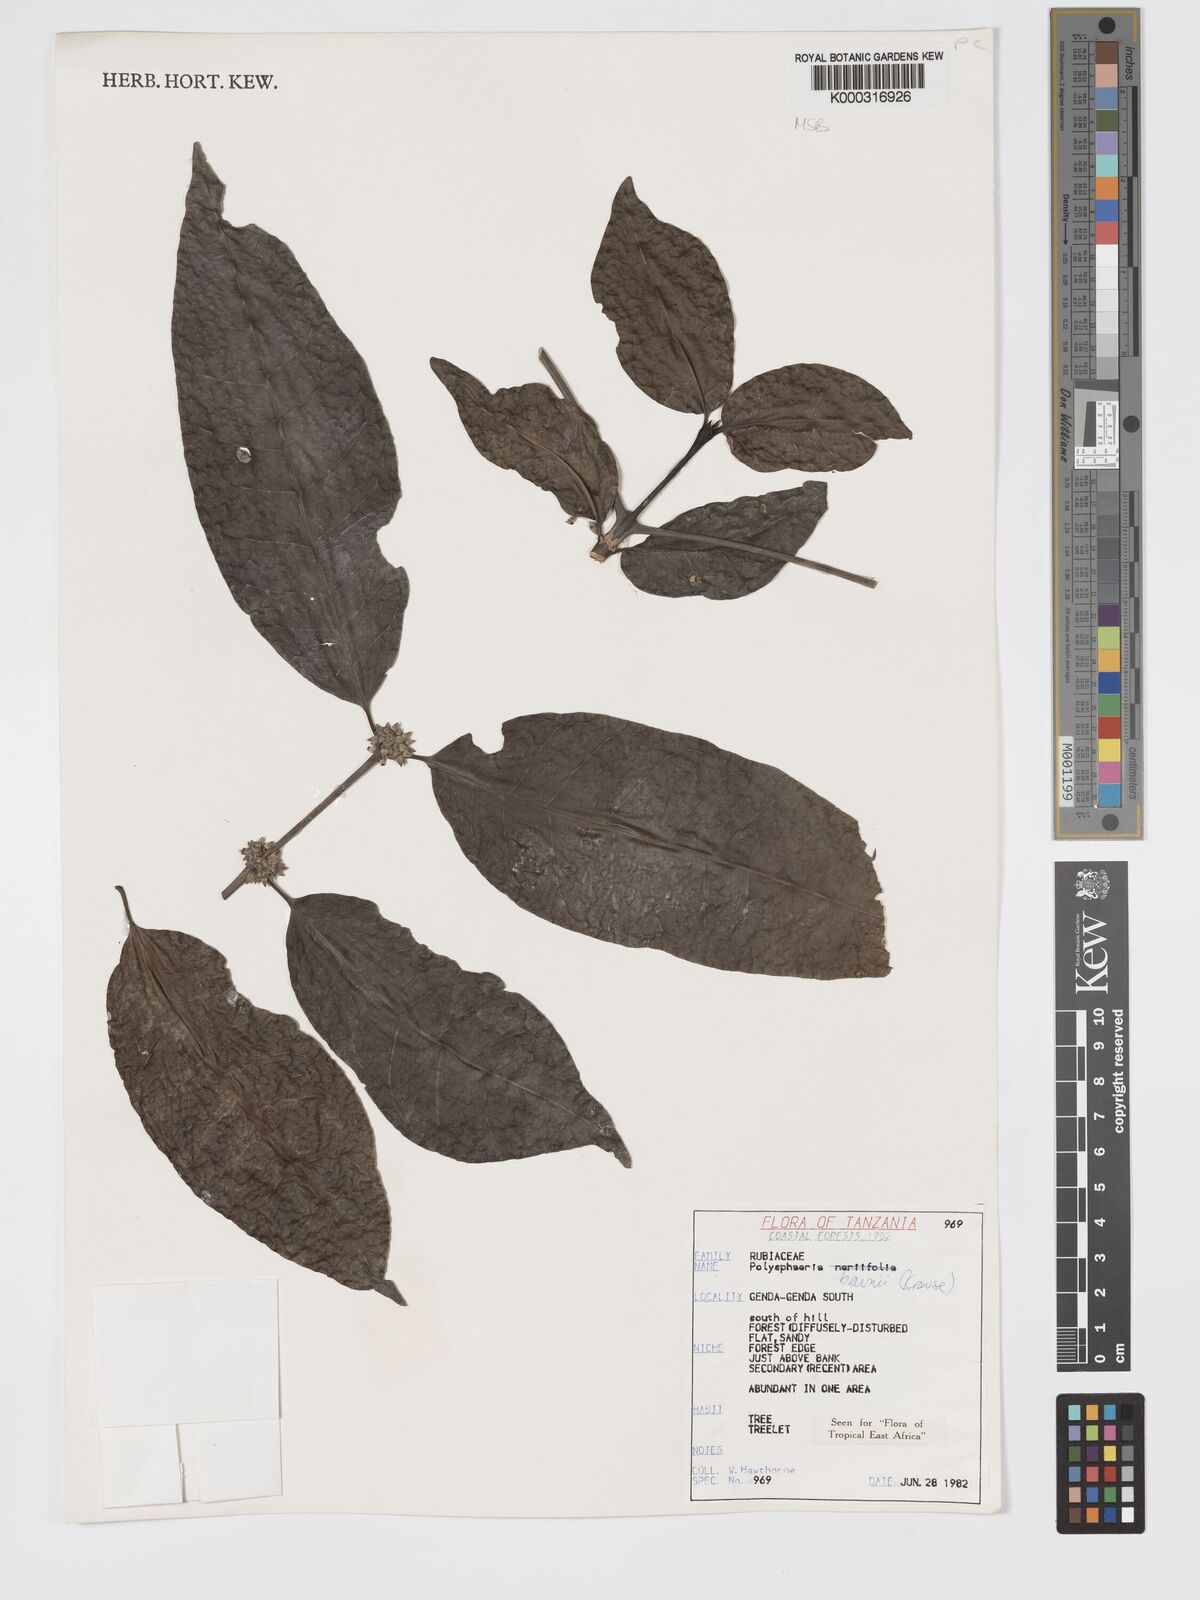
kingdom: Plantae
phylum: Tracheophyta
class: Magnoliopsida
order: Gentianales
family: Rubiaceae
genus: Polysphaeria
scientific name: Polysphaeria braunii
